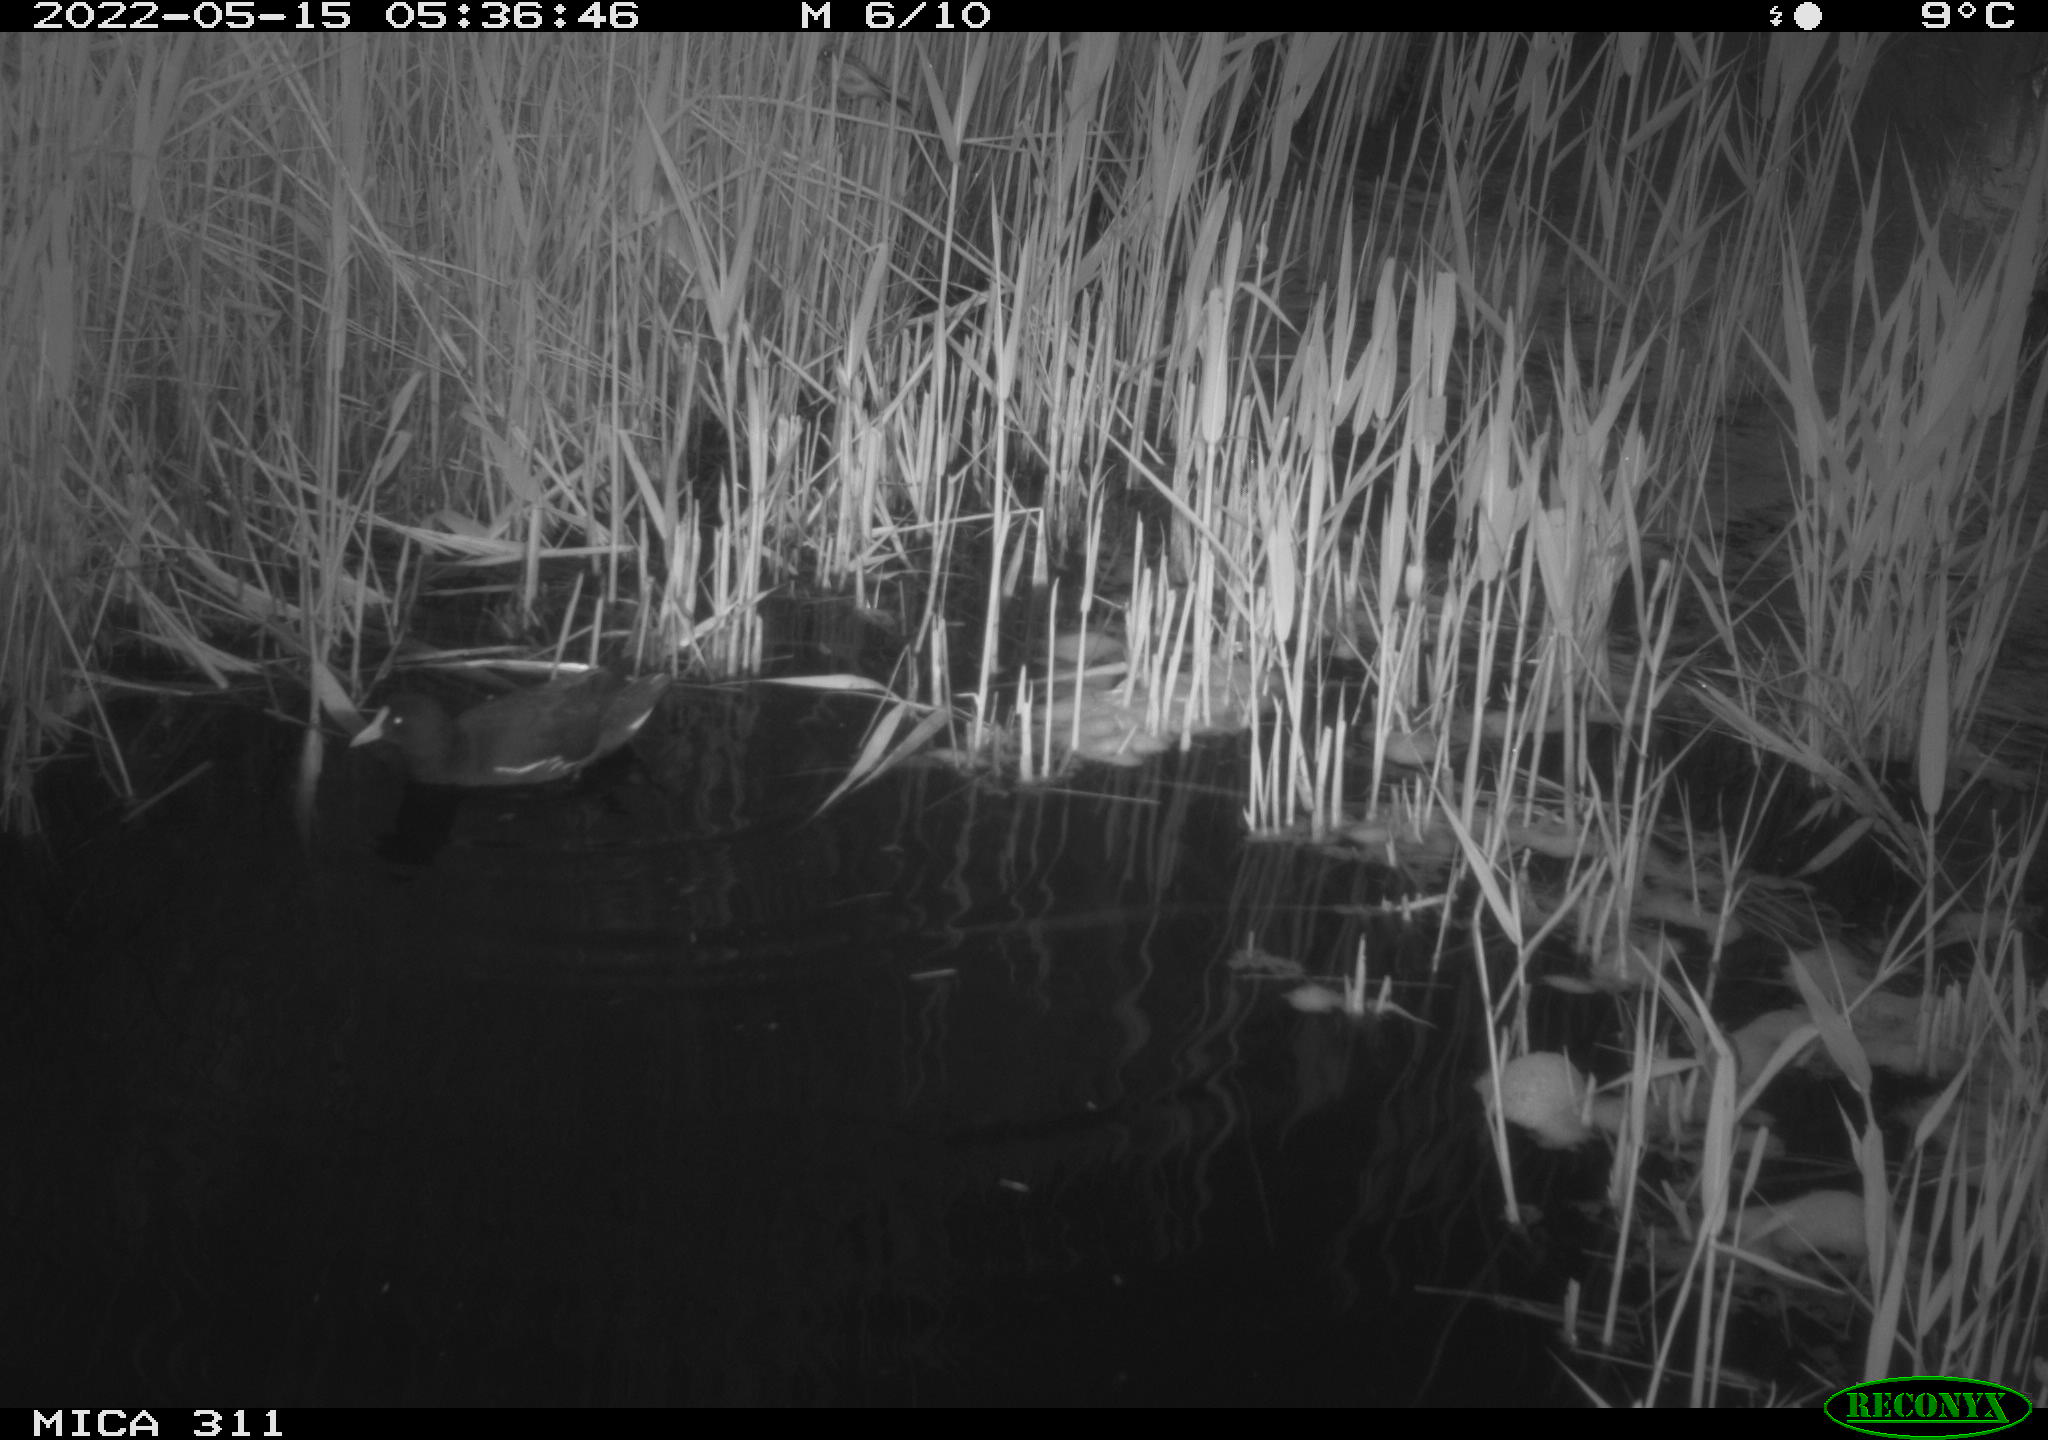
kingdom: Animalia
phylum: Chordata
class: Aves
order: Gruiformes
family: Rallidae
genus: Gallinula
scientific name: Gallinula chloropus
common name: Common moorhen
